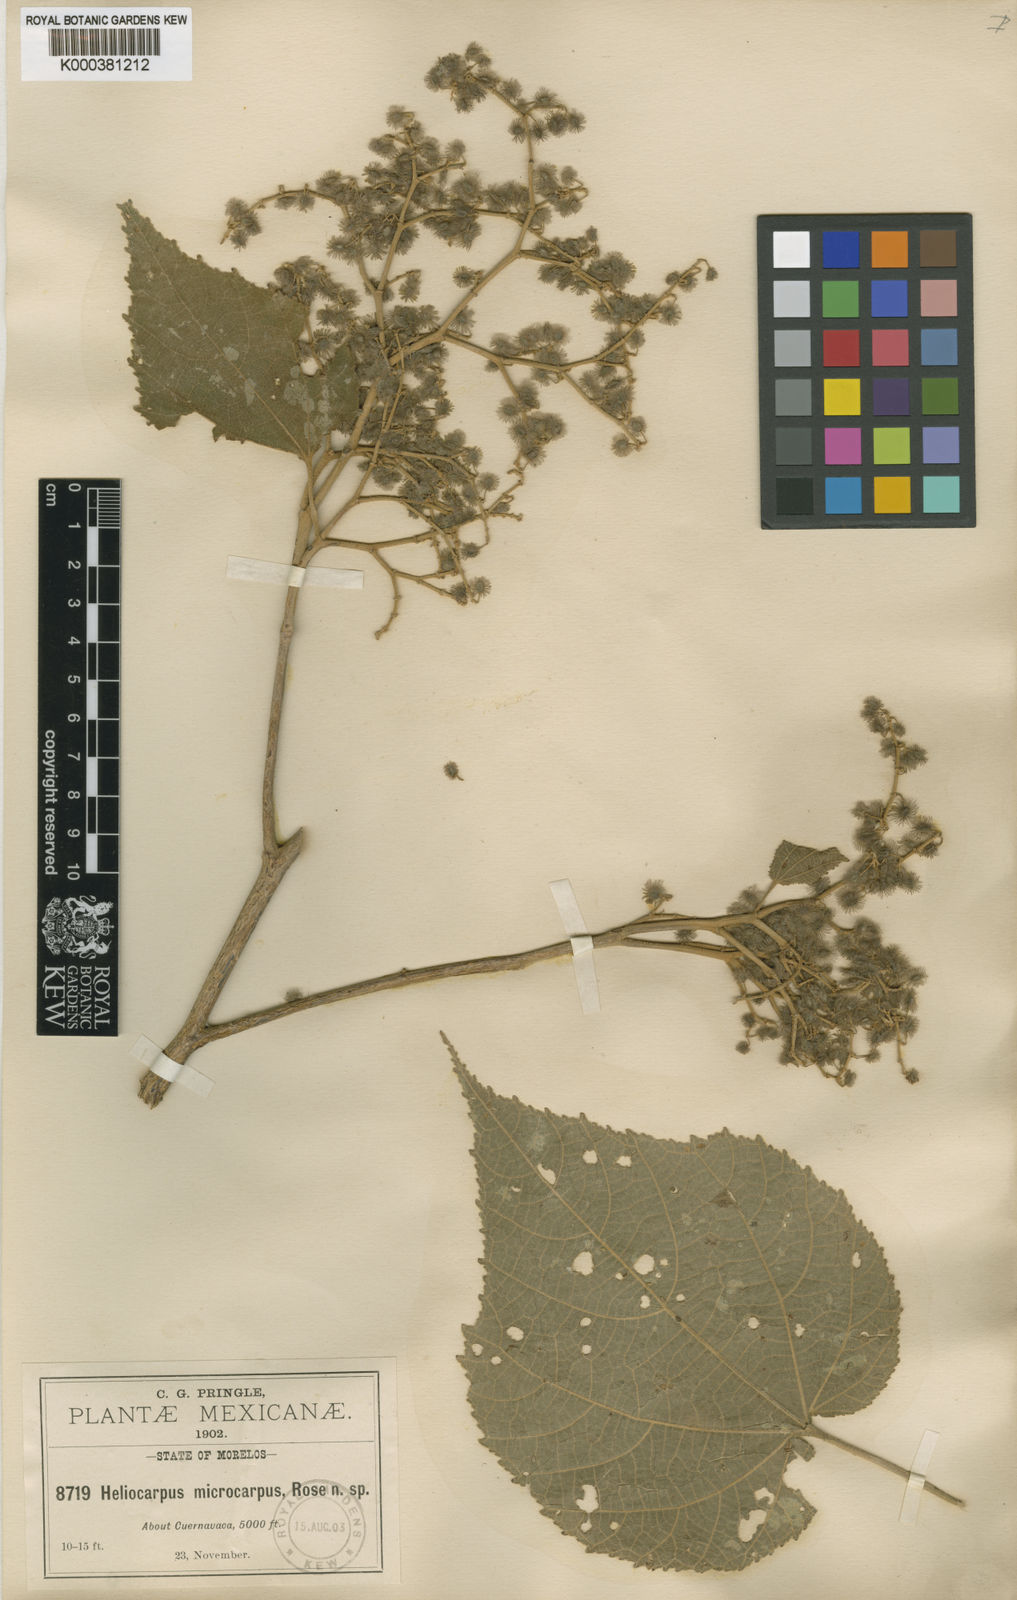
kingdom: Plantae
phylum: Tracheophyta
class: Magnoliopsida
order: Malvales
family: Malvaceae
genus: Heliocarpus
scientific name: Heliocarpus terebinthinaceus
